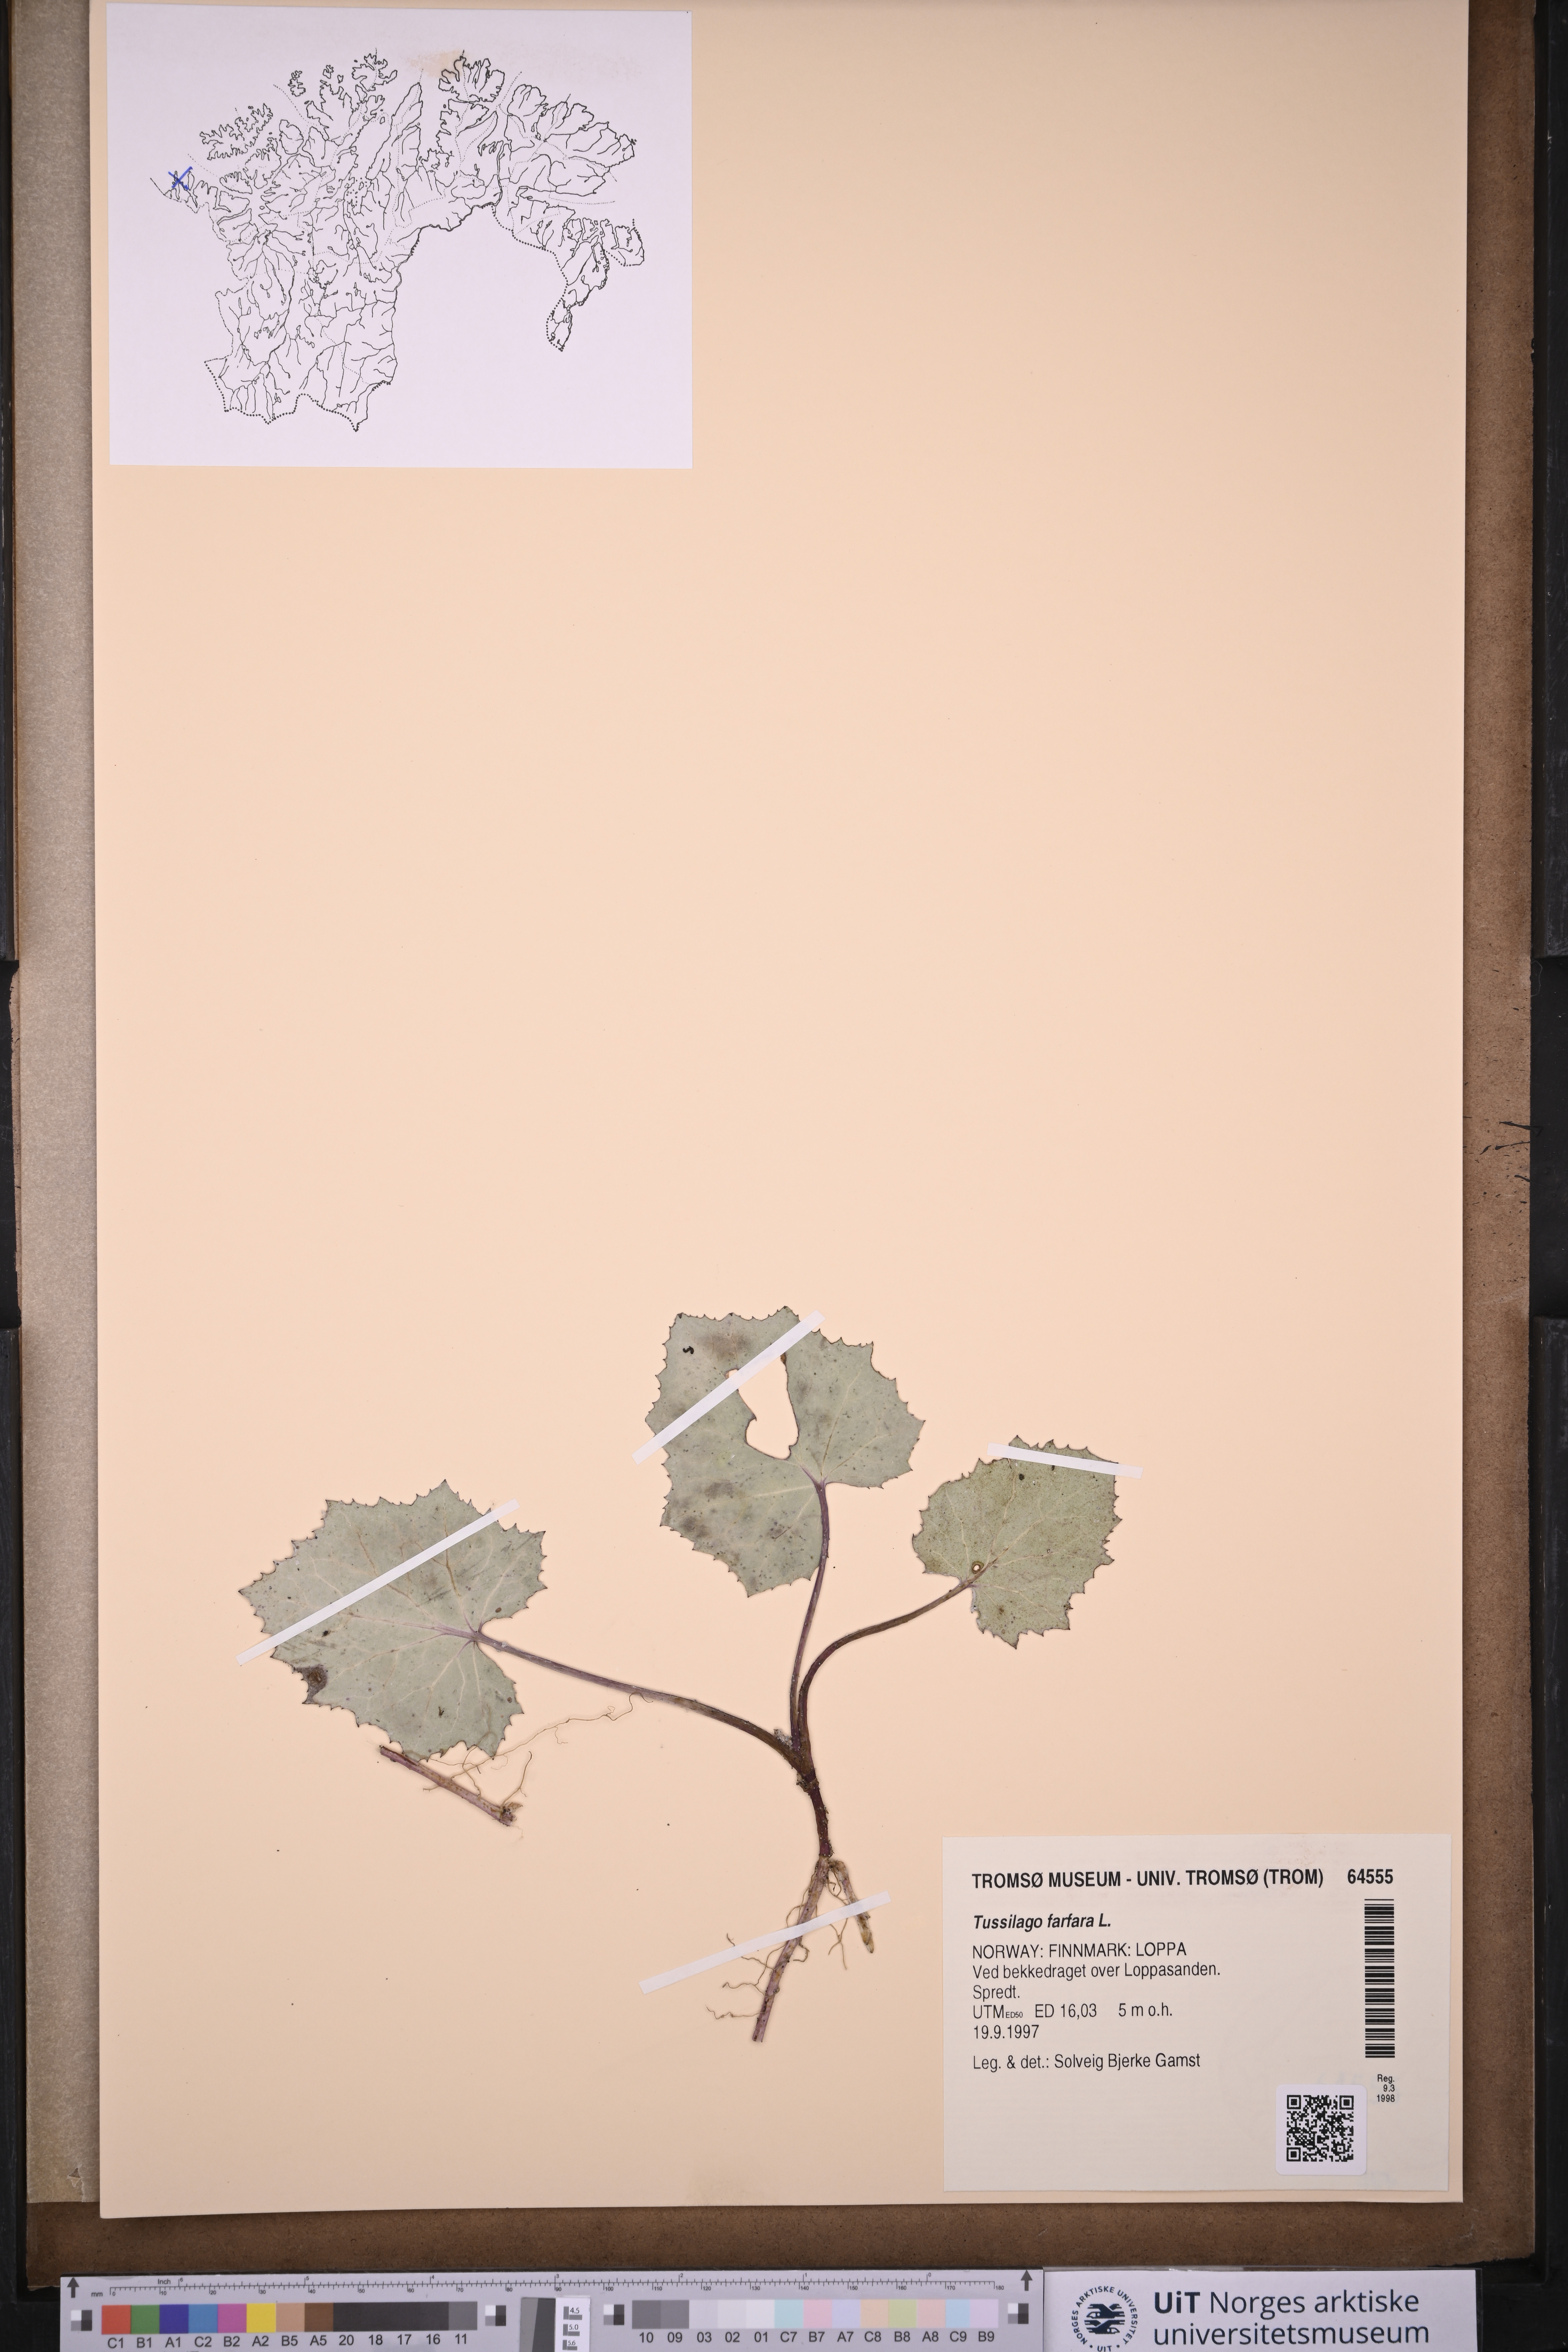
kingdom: Plantae
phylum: Tracheophyta
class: Magnoliopsida
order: Asterales
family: Asteraceae
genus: Tussilago
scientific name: Tussilago farfara
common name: Coltsfoot
